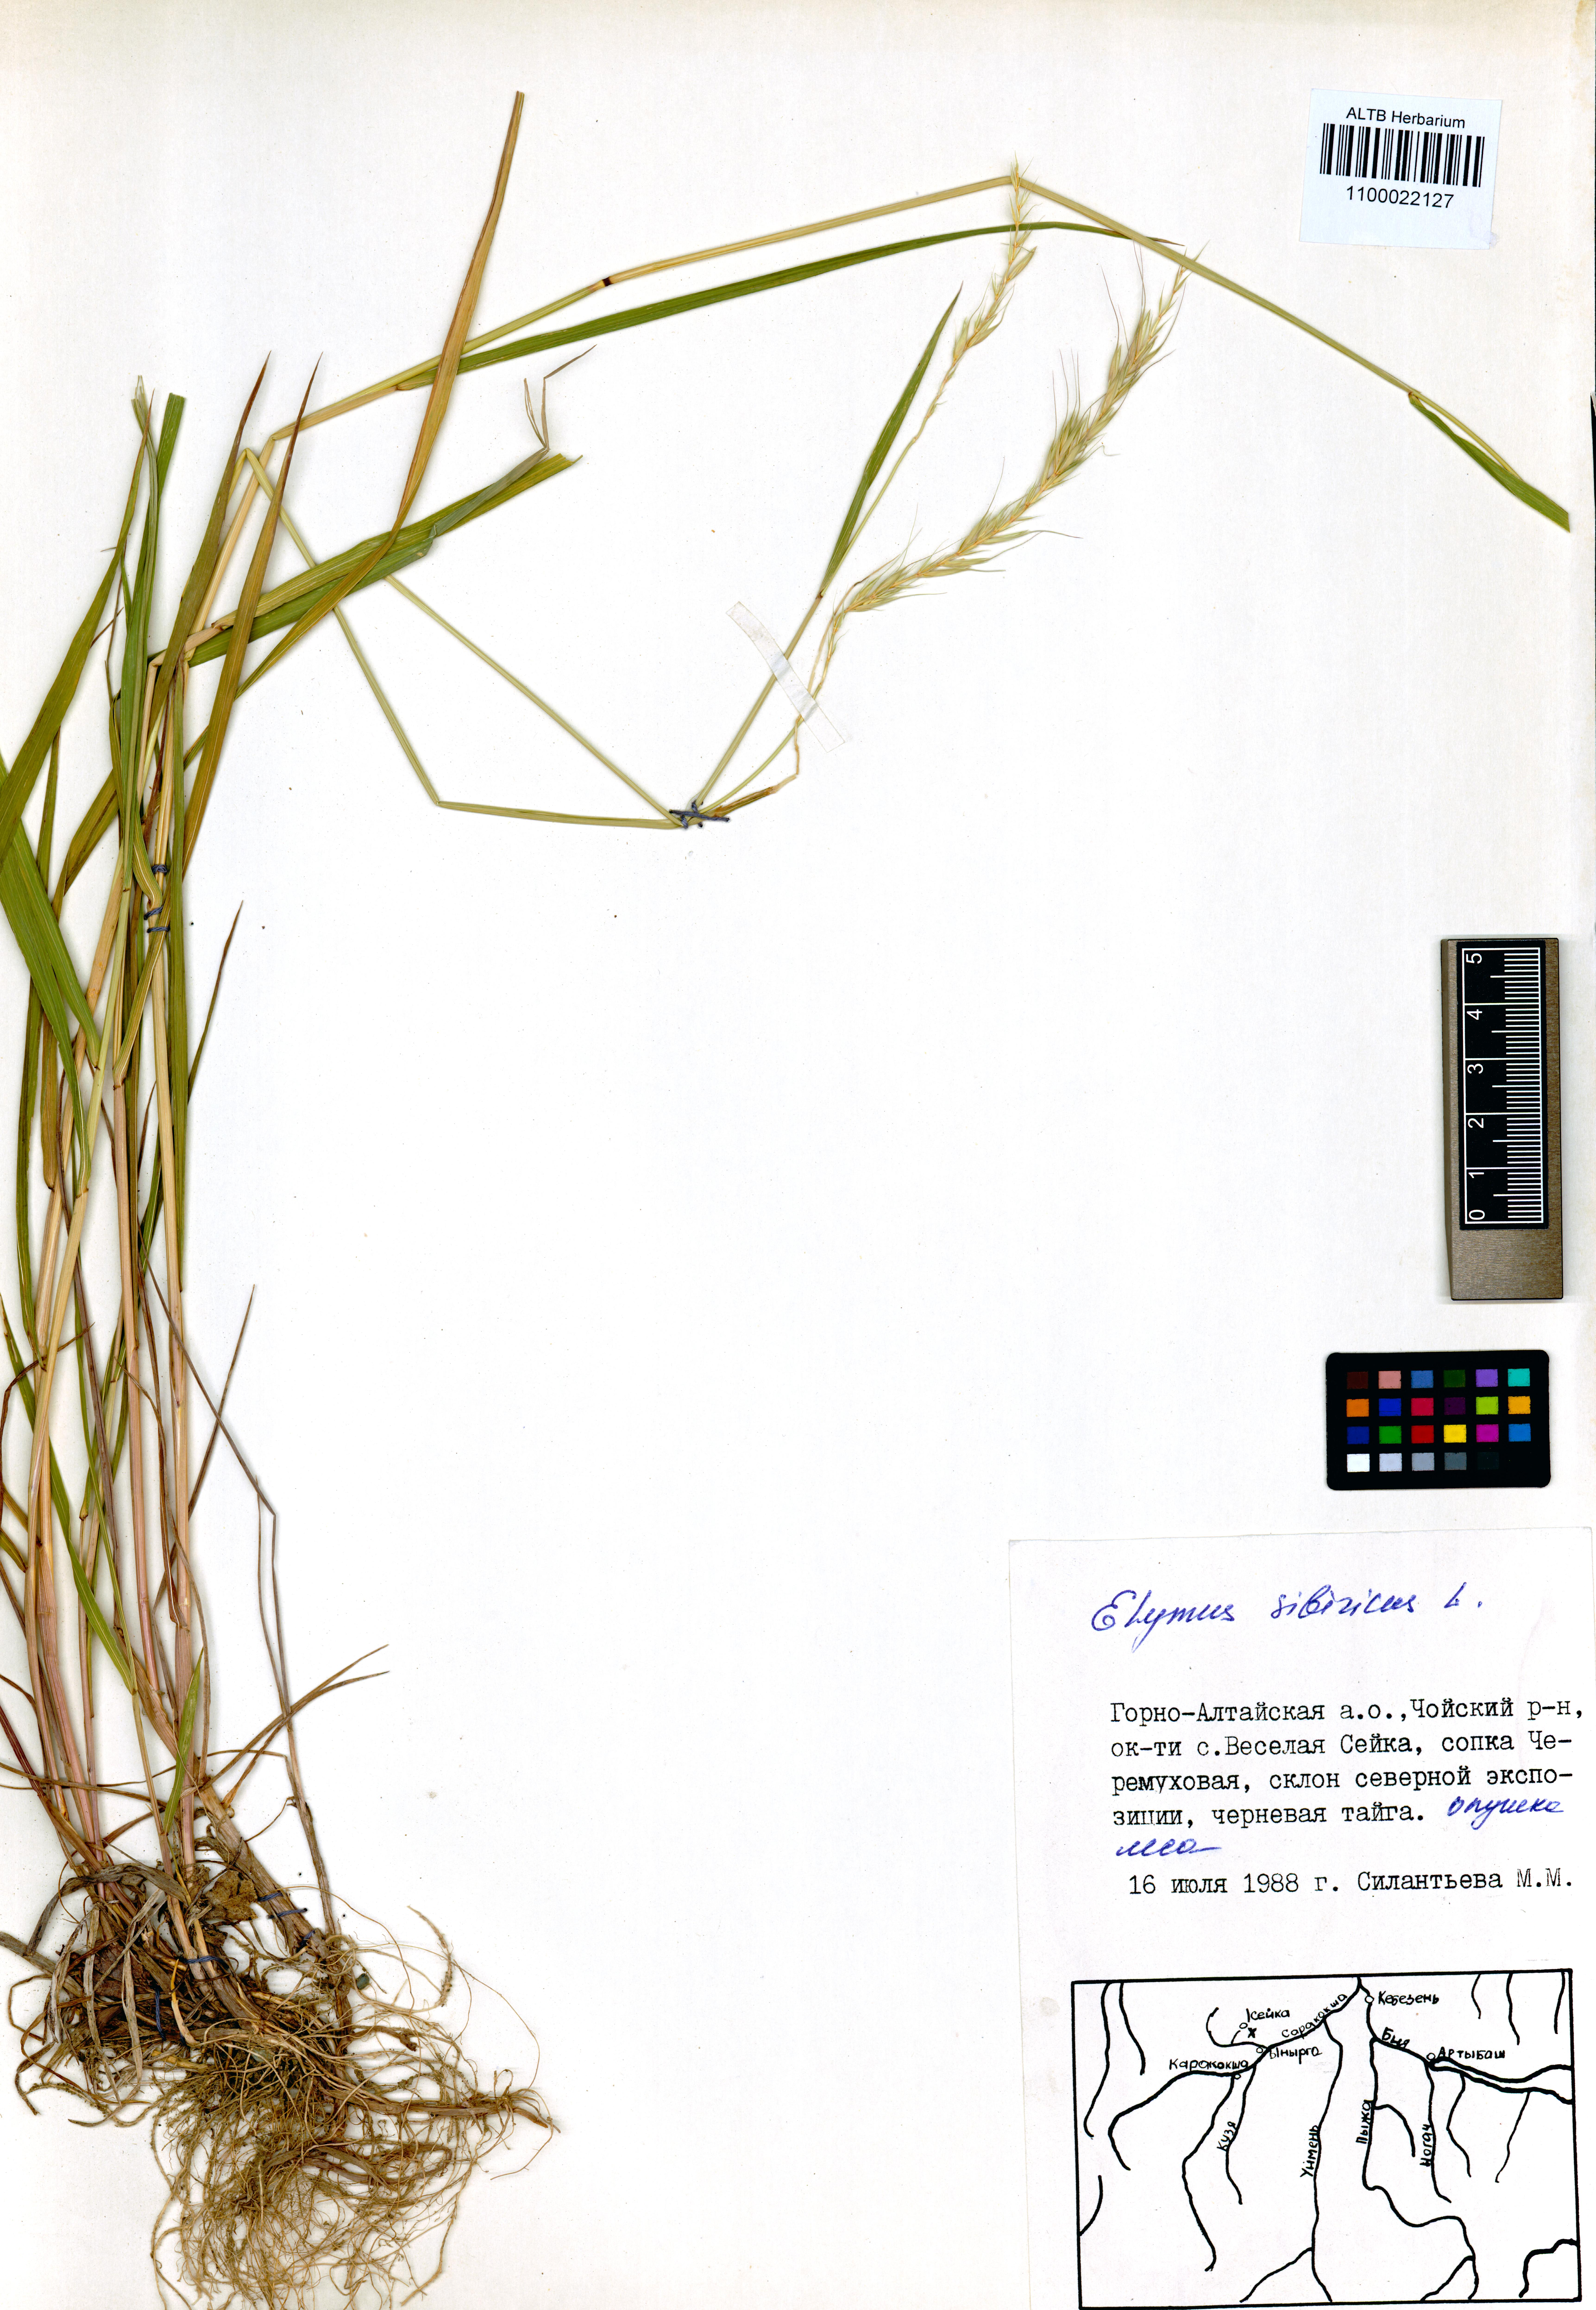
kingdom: Plantae
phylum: Tracheophyta
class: Liliopsida
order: Poales
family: Poaceae
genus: Elymus
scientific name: Elymus sibiricus
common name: Siberian wildrye
